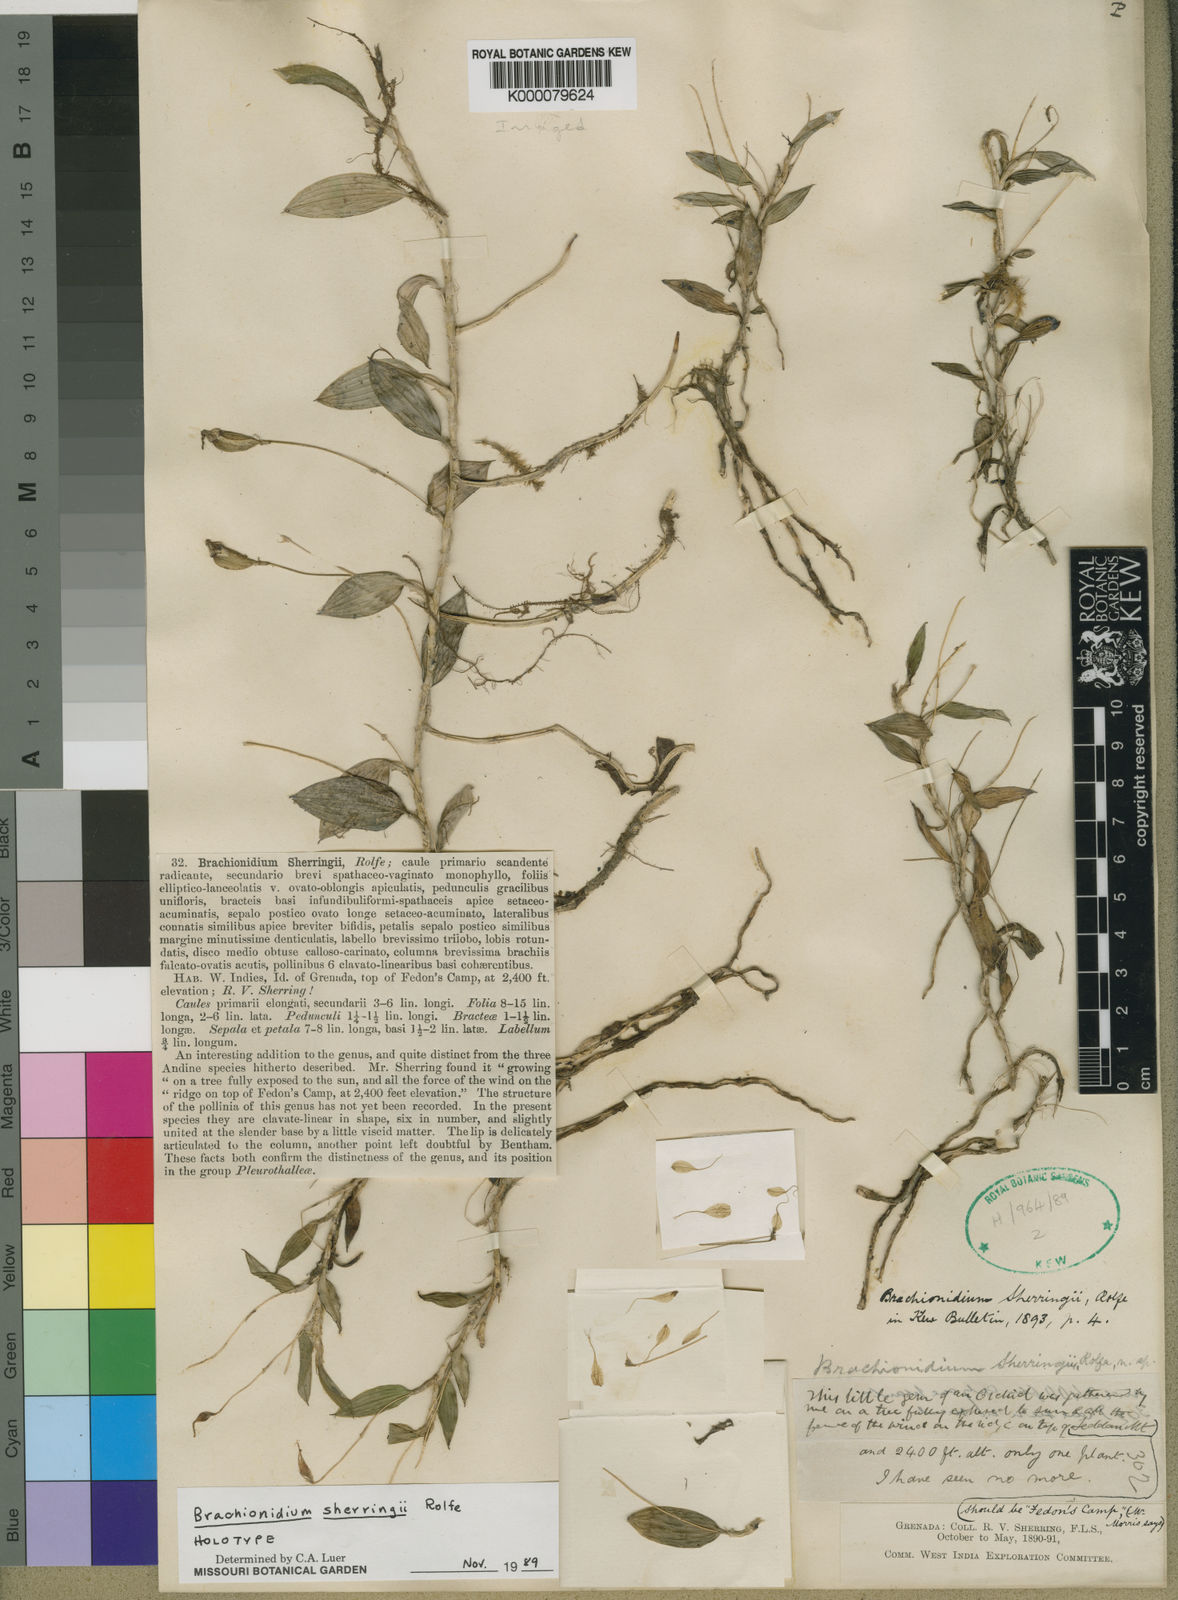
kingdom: Plantae
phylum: Tracheophyta
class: Liliopsida
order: Asparagales
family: Orchidaceae
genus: Brachionidium
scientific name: Brachionidium sherringii
